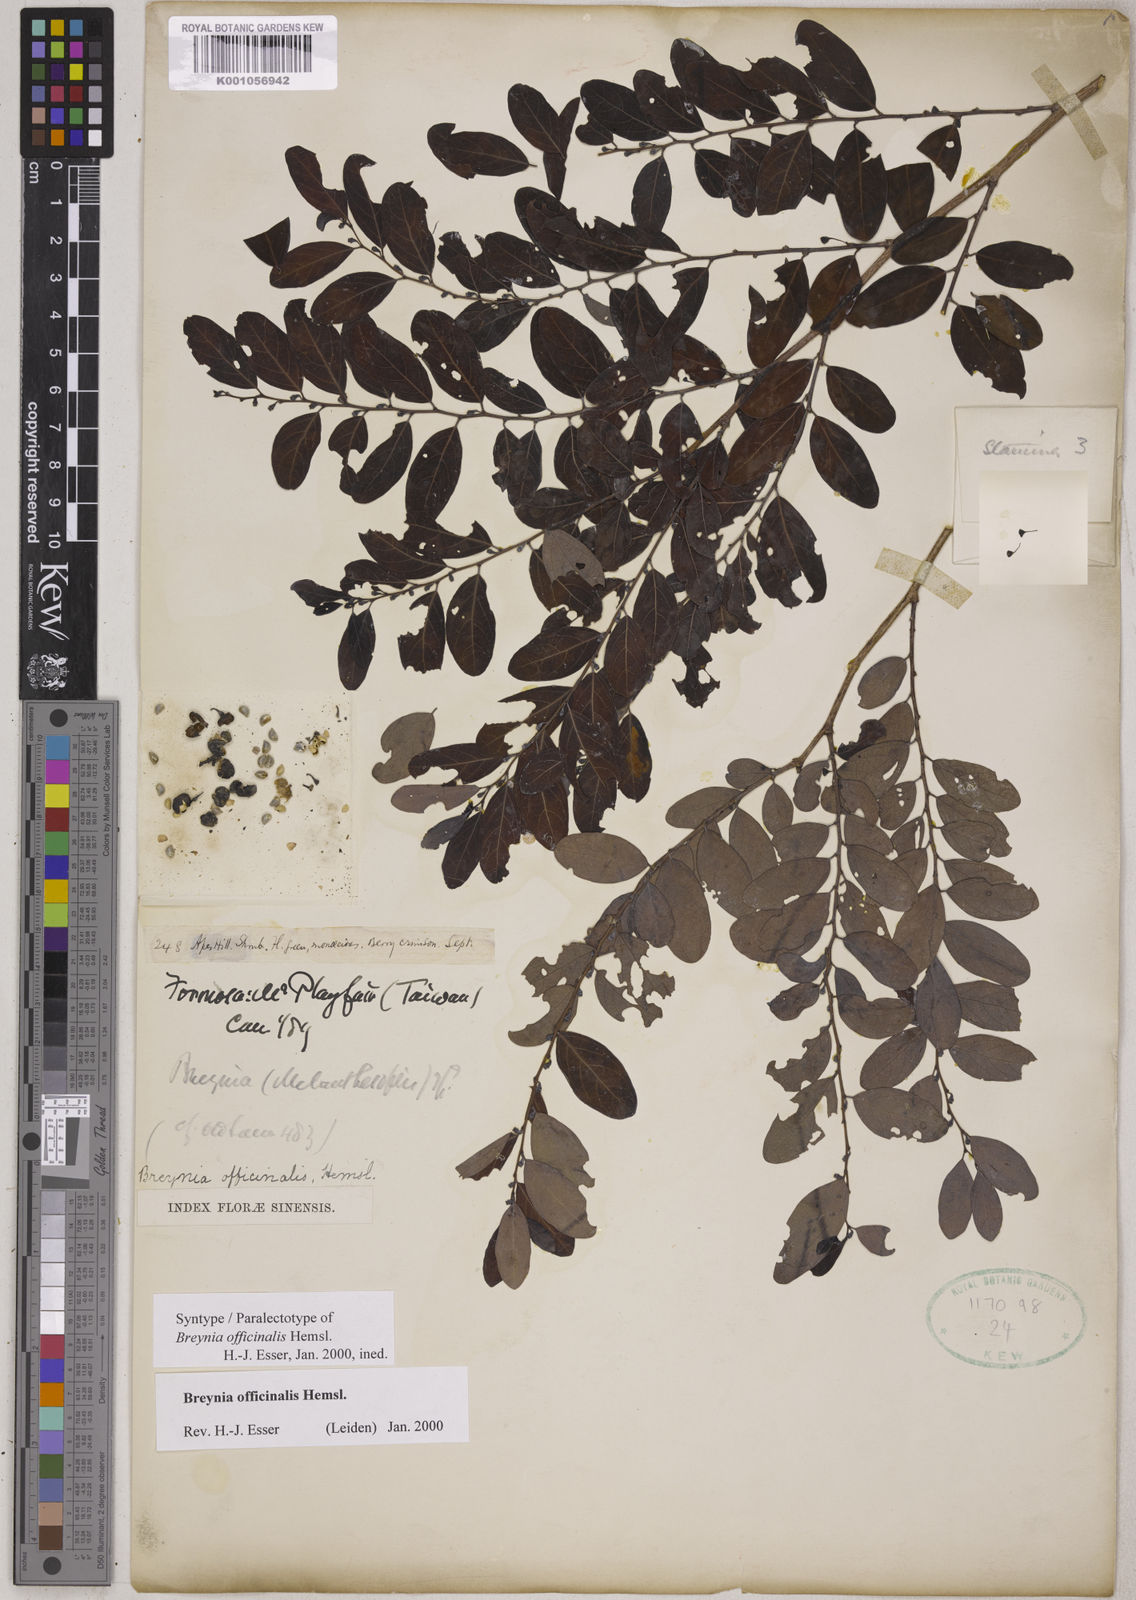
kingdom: Plantae
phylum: Tracheophyta
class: Magnoliopsida
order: Malpighiales
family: Phyllanthaceae
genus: Breynia
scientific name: Breynia vitis-idaea
